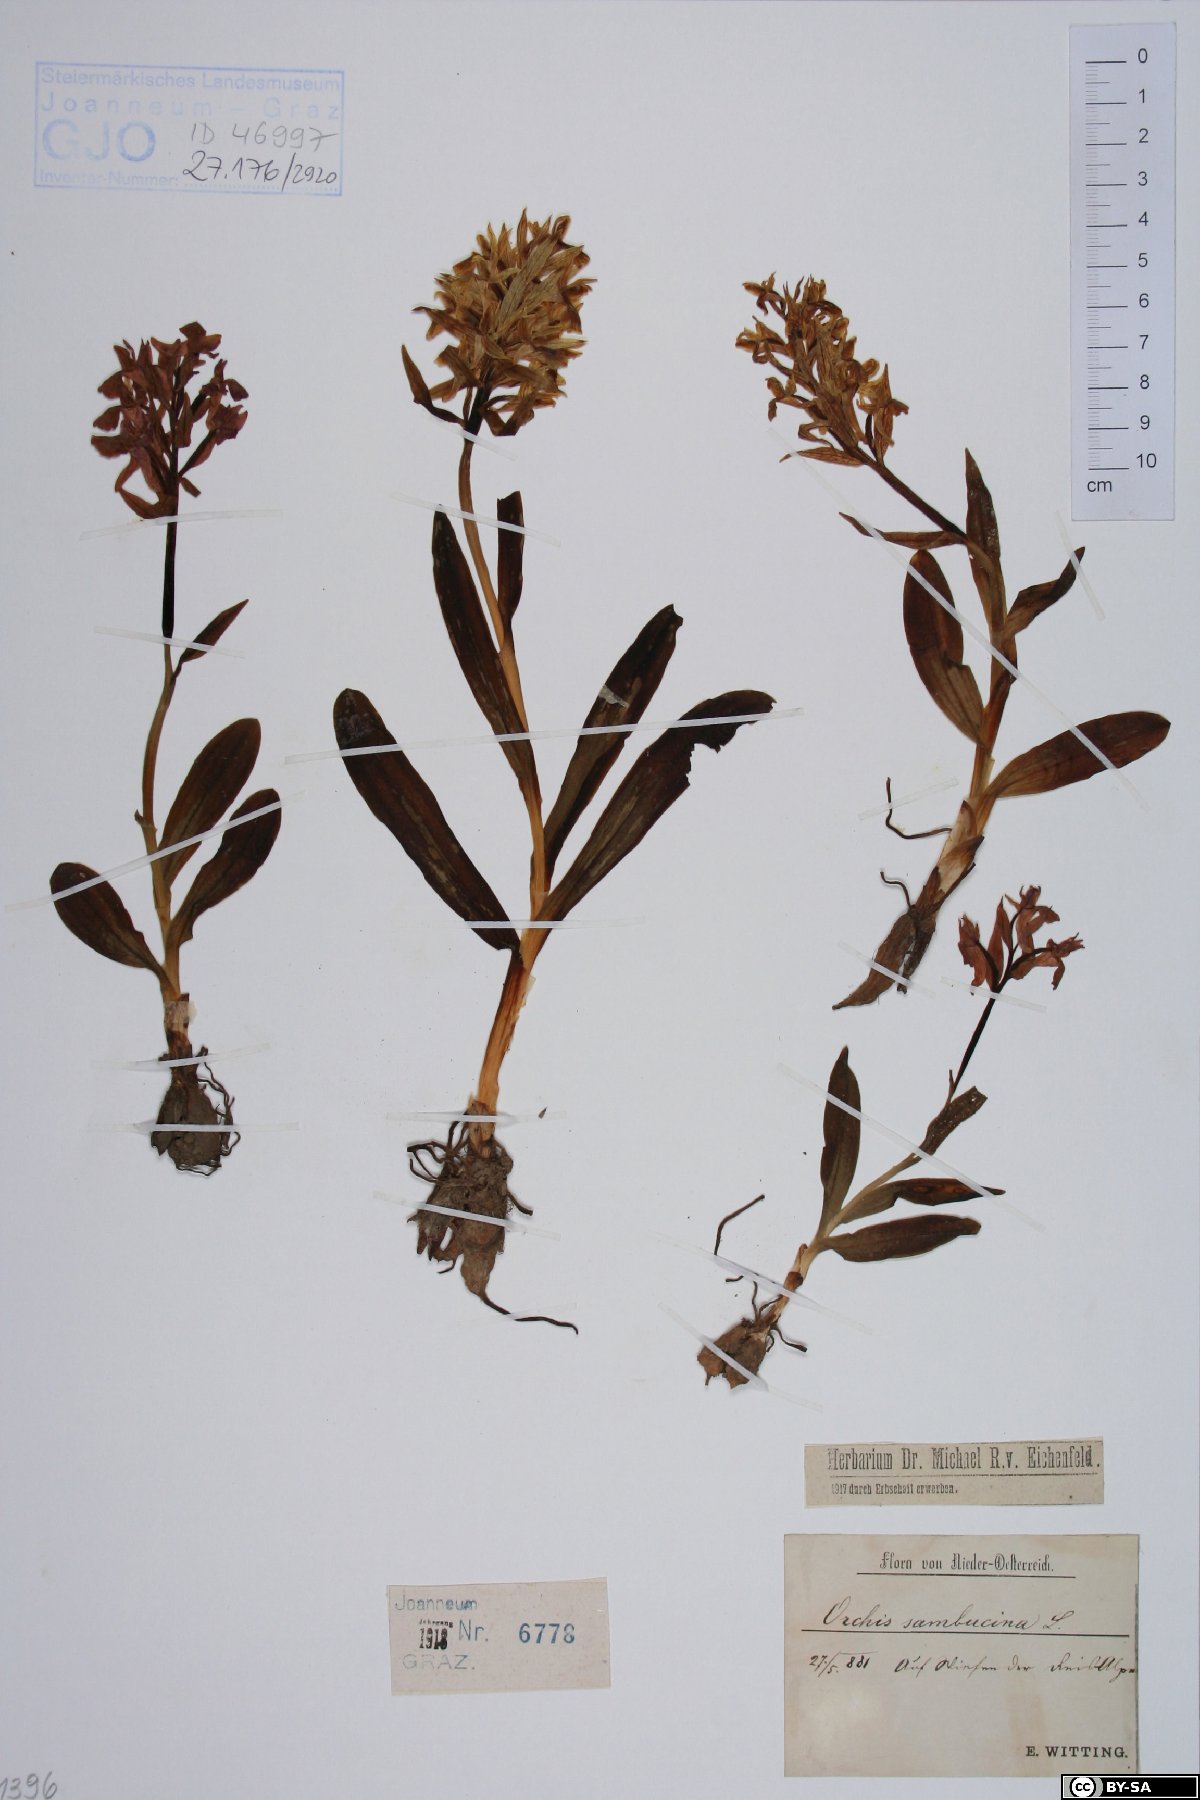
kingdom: Plantae
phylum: Tracheophyta
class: Liliopsida
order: Asparagales
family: Orchidaceae
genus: Dactylorhiza
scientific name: Dactylorhiza sambucina
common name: Elder-flowered orchid
